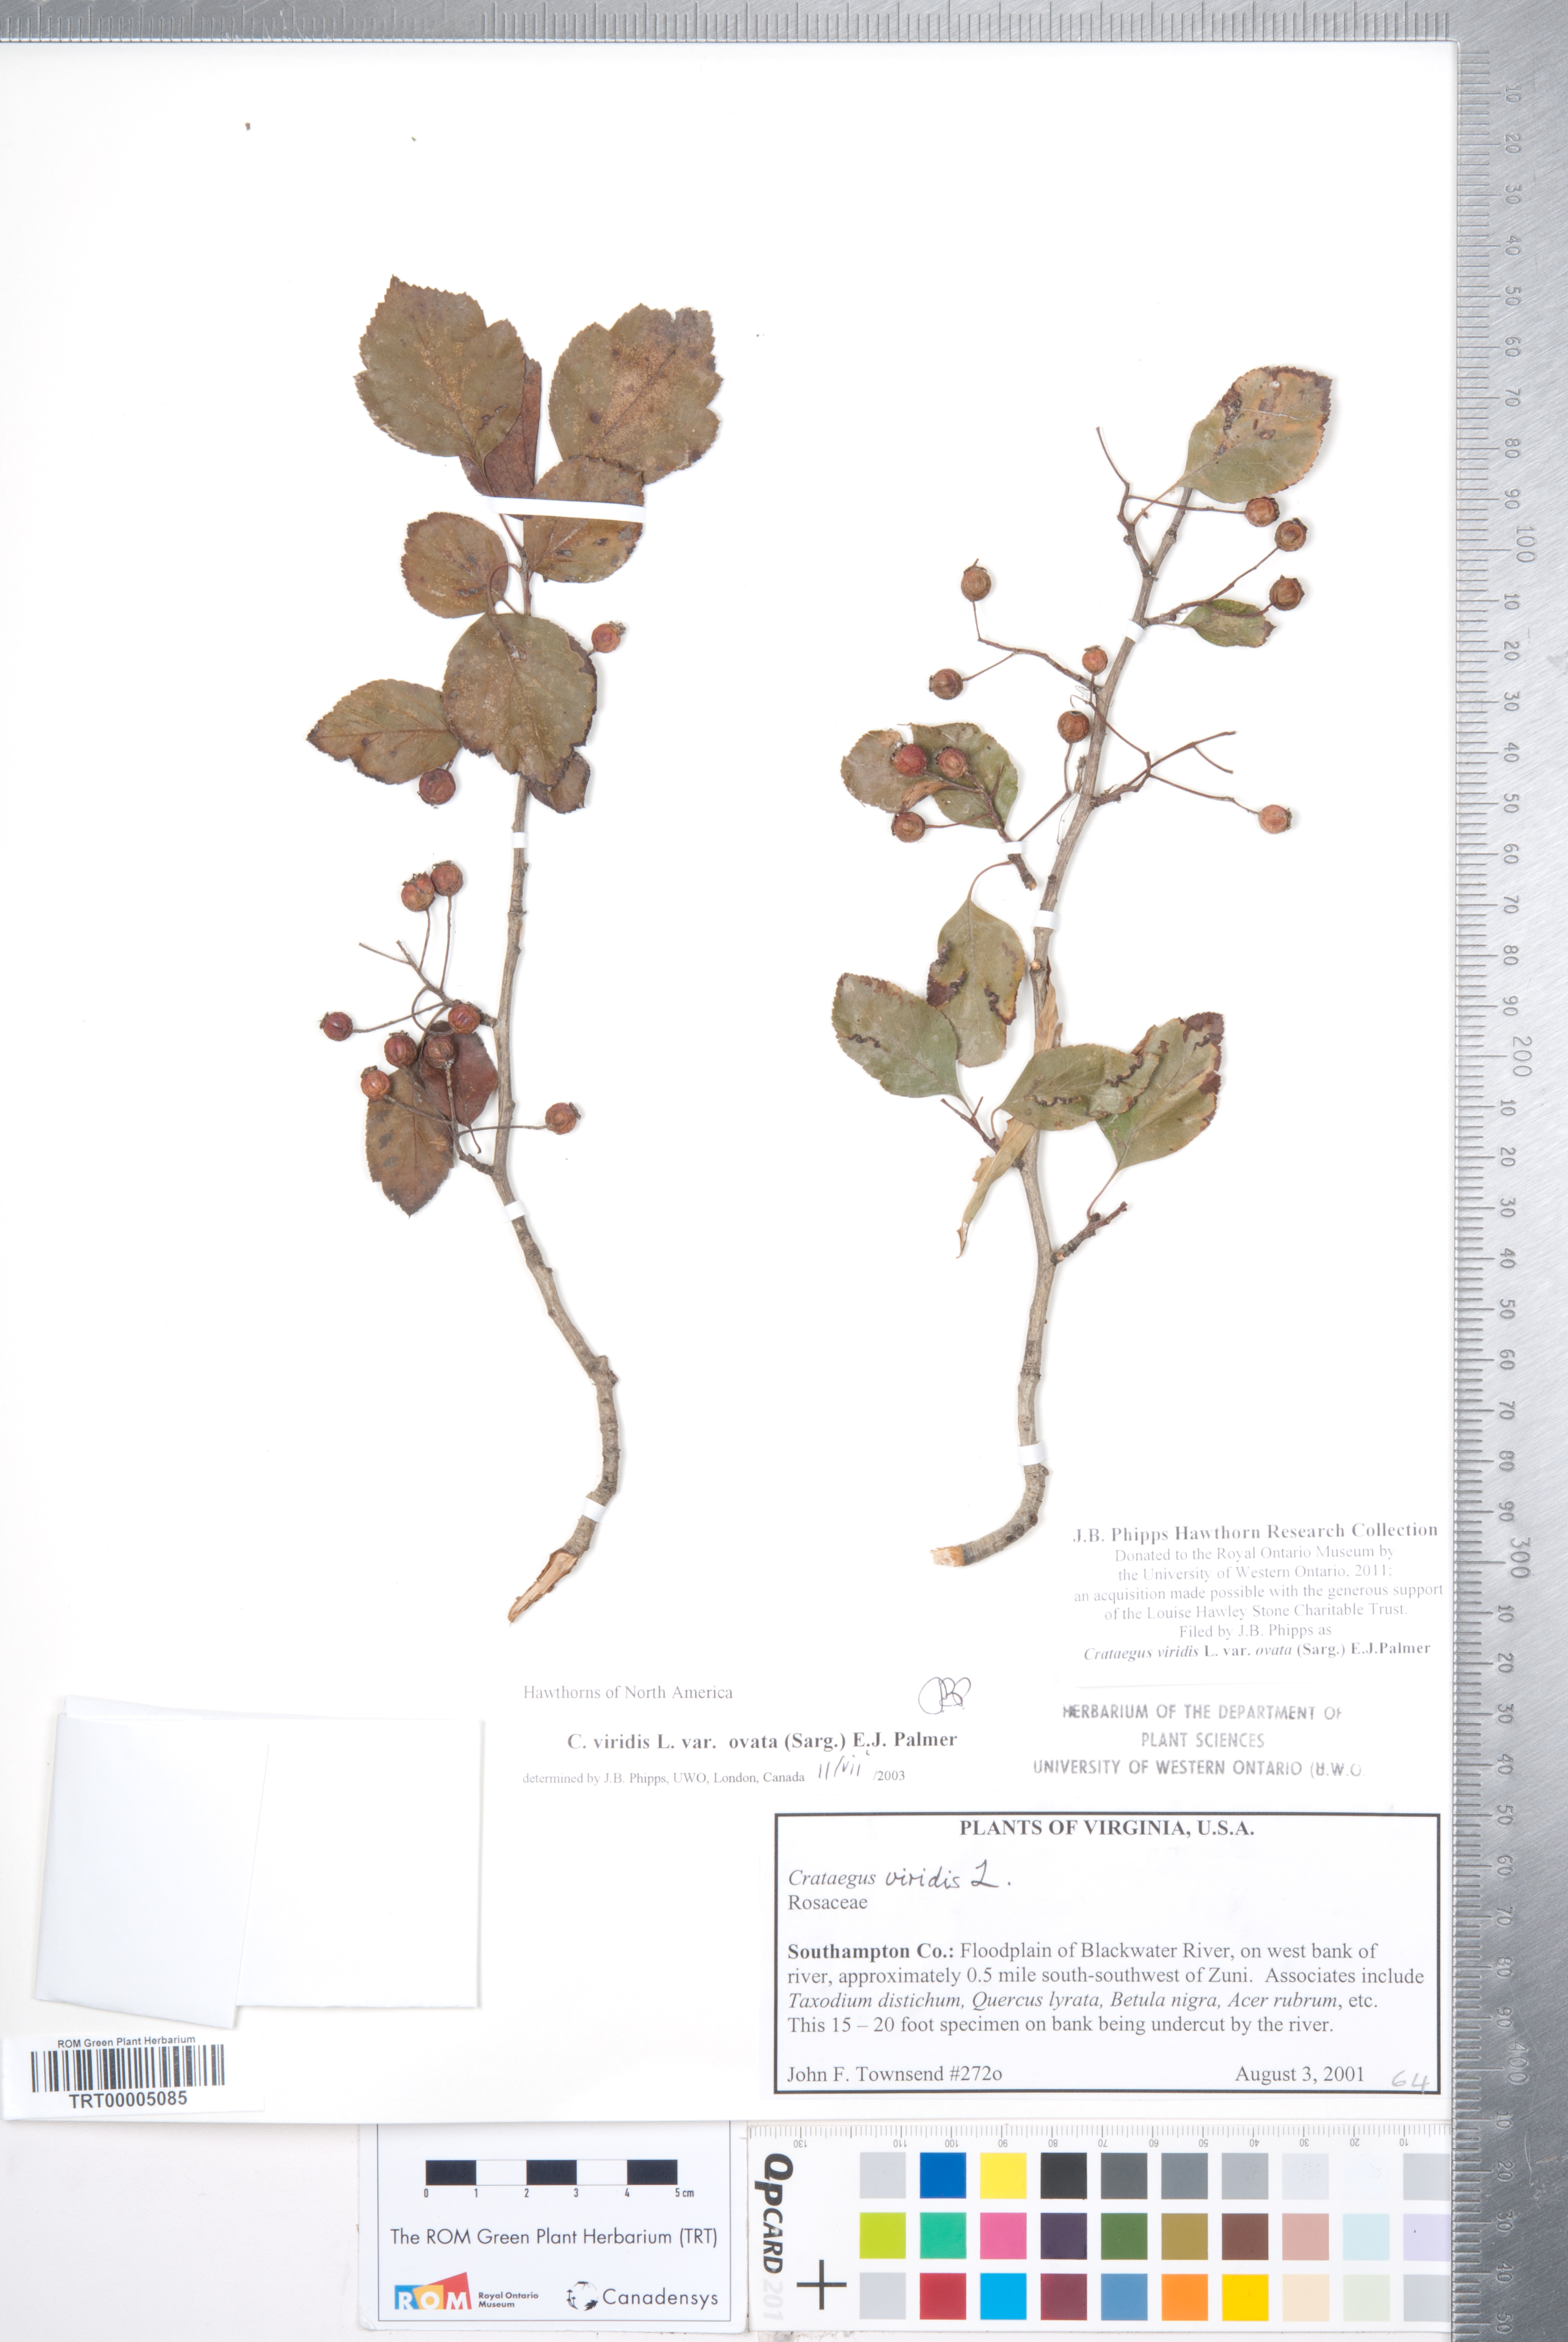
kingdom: Plantae
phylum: Tracheophyta
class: Magnoliopsida
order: Rosales
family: Rosaceae
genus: Crataegus
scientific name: Crataegus viridis
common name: Southernthorn
